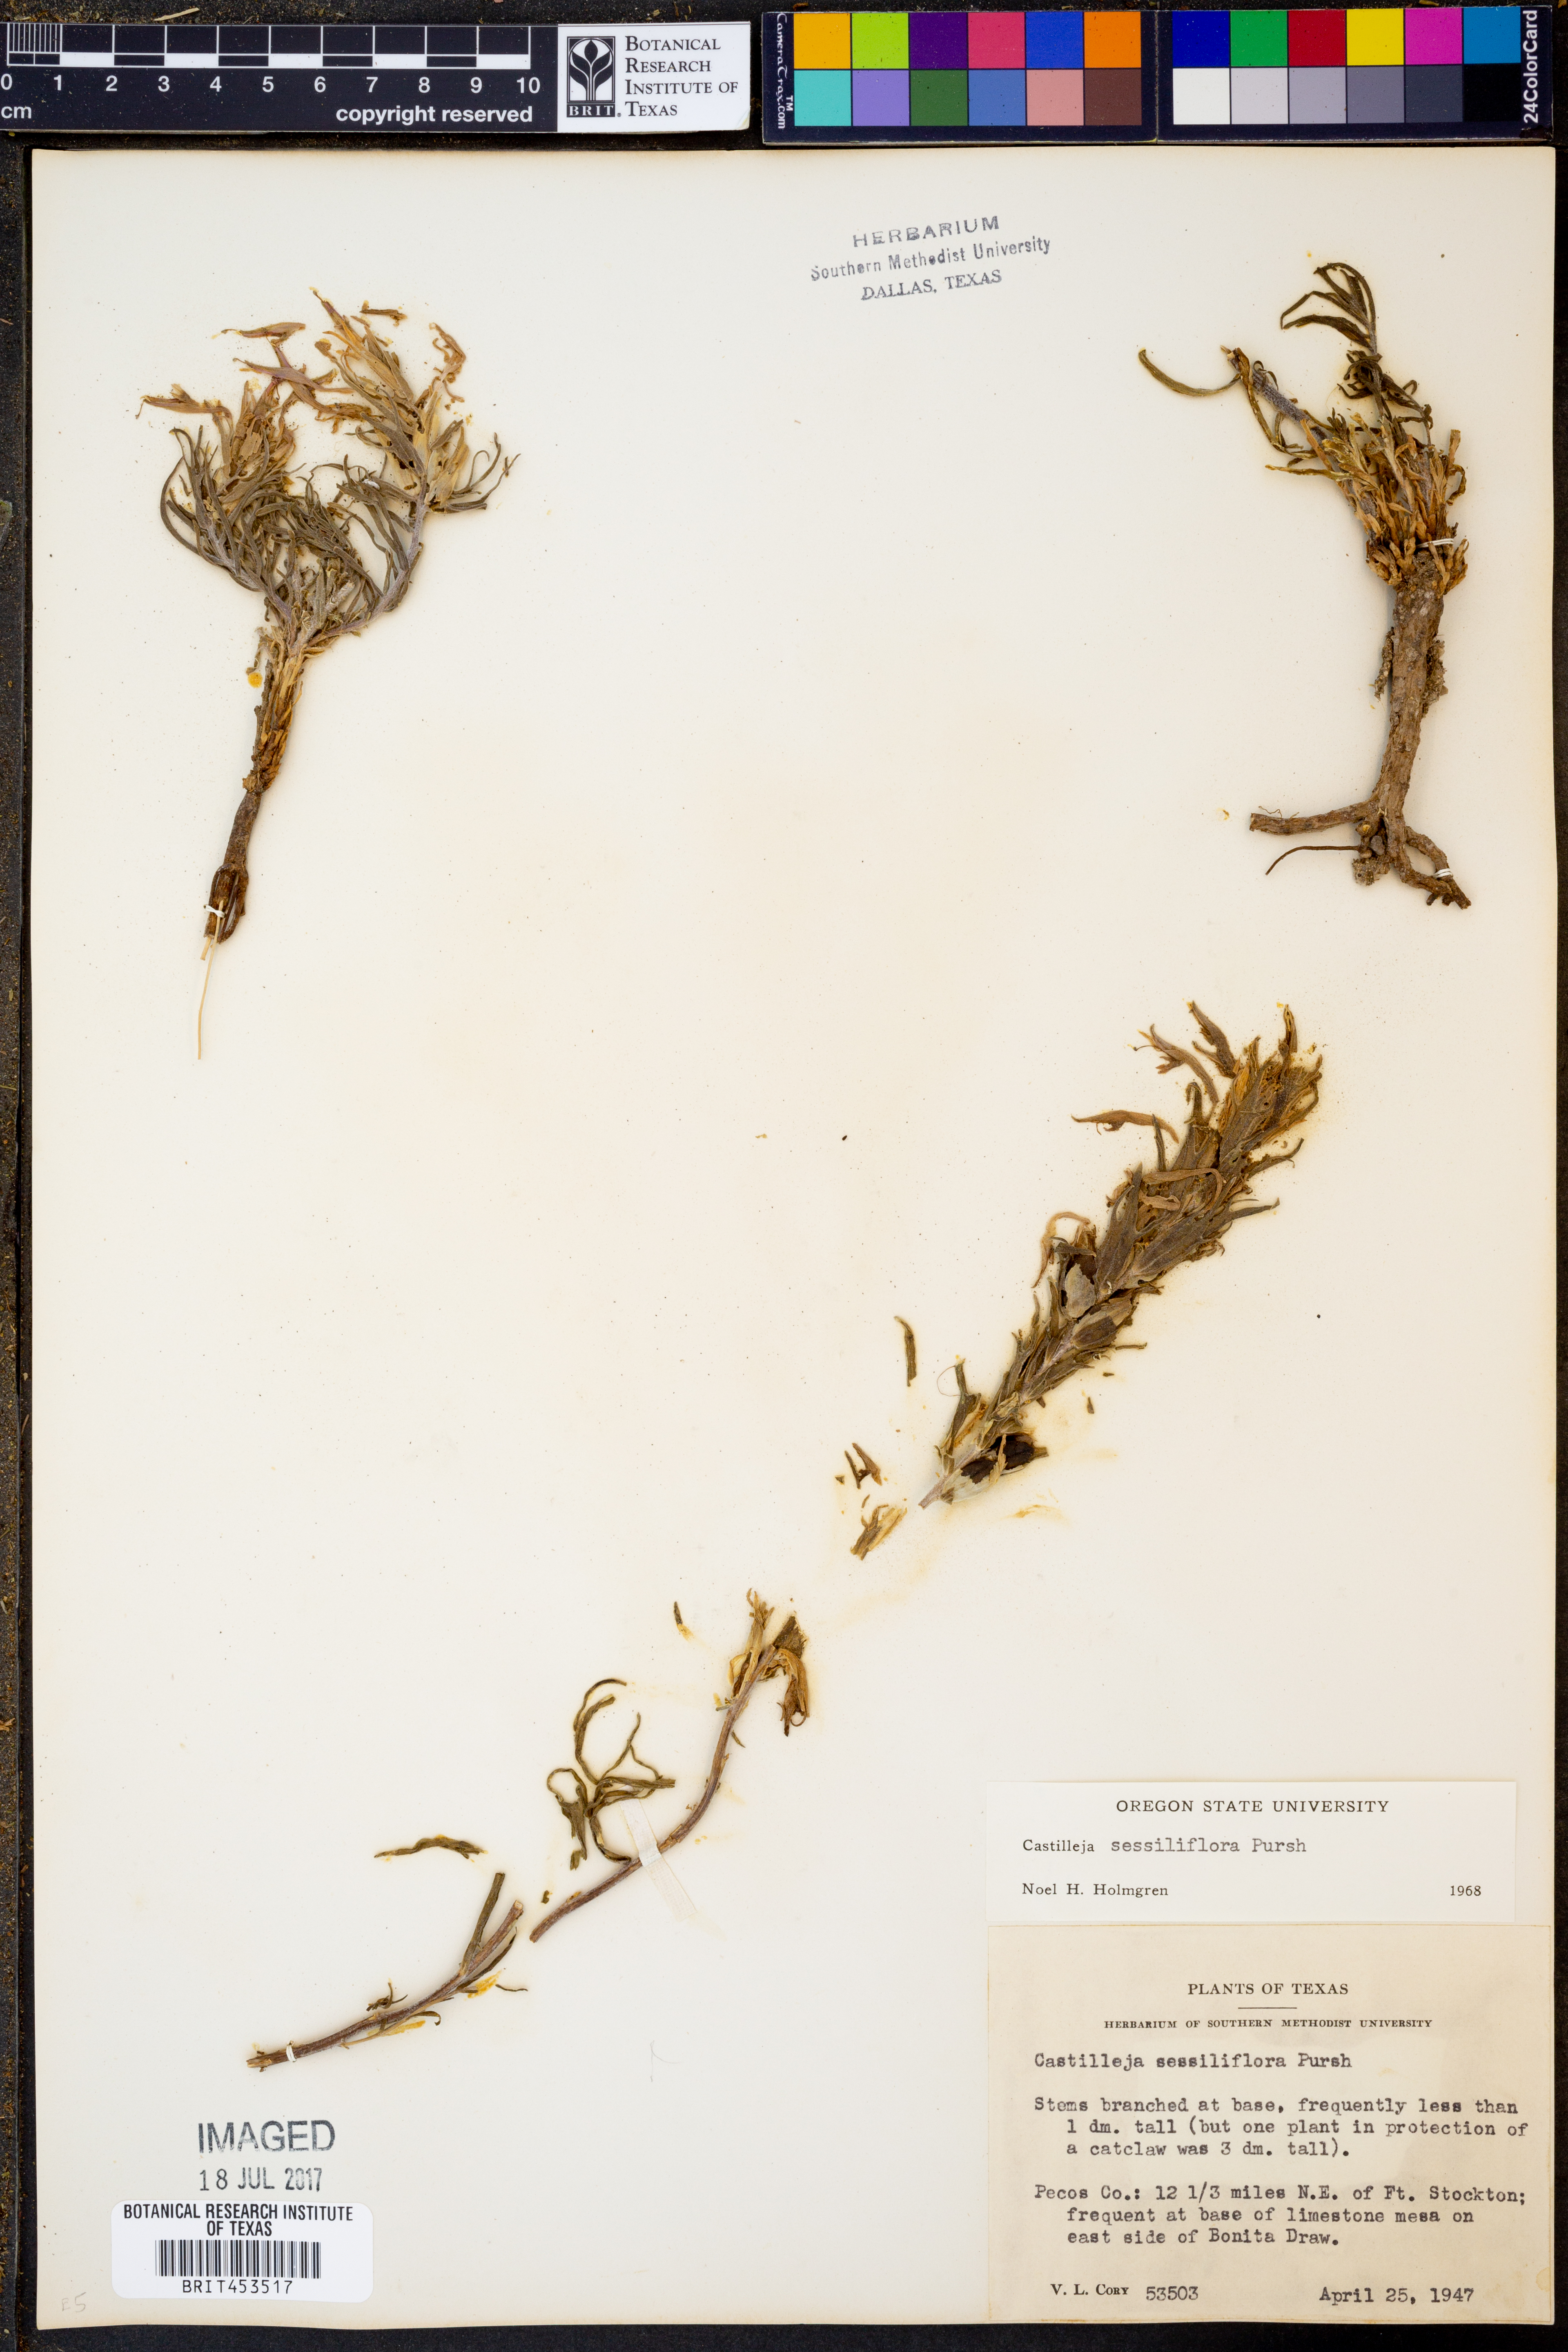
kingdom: Plantae
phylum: Tracheophyta
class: Magnoliopsida
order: Lamiales
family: Orobanchaceae
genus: Castilleja
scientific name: Castilleja sessiliflora
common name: Downy paintbrush
